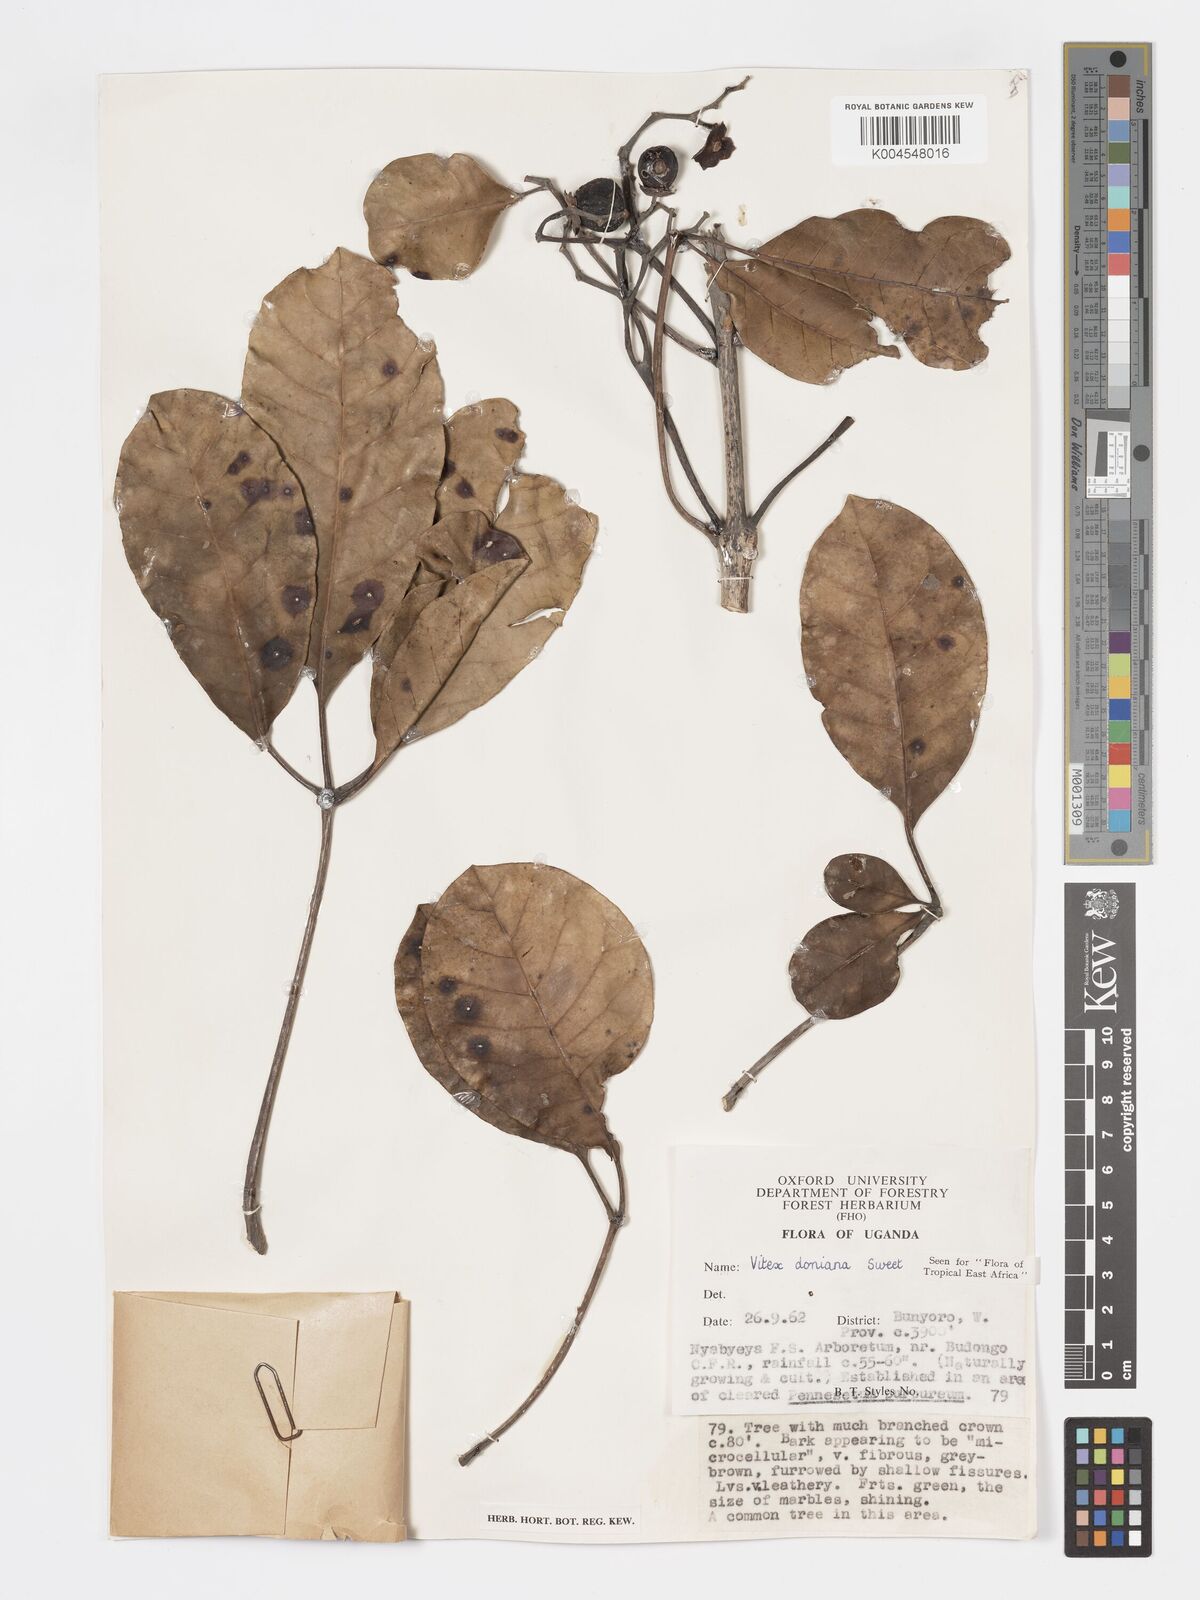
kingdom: Plantae
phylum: Tracheophyta
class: Magnoliopsida
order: Lamiales
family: Lamiaceae
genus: Vitex
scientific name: Vitex doniana
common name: Black plum
